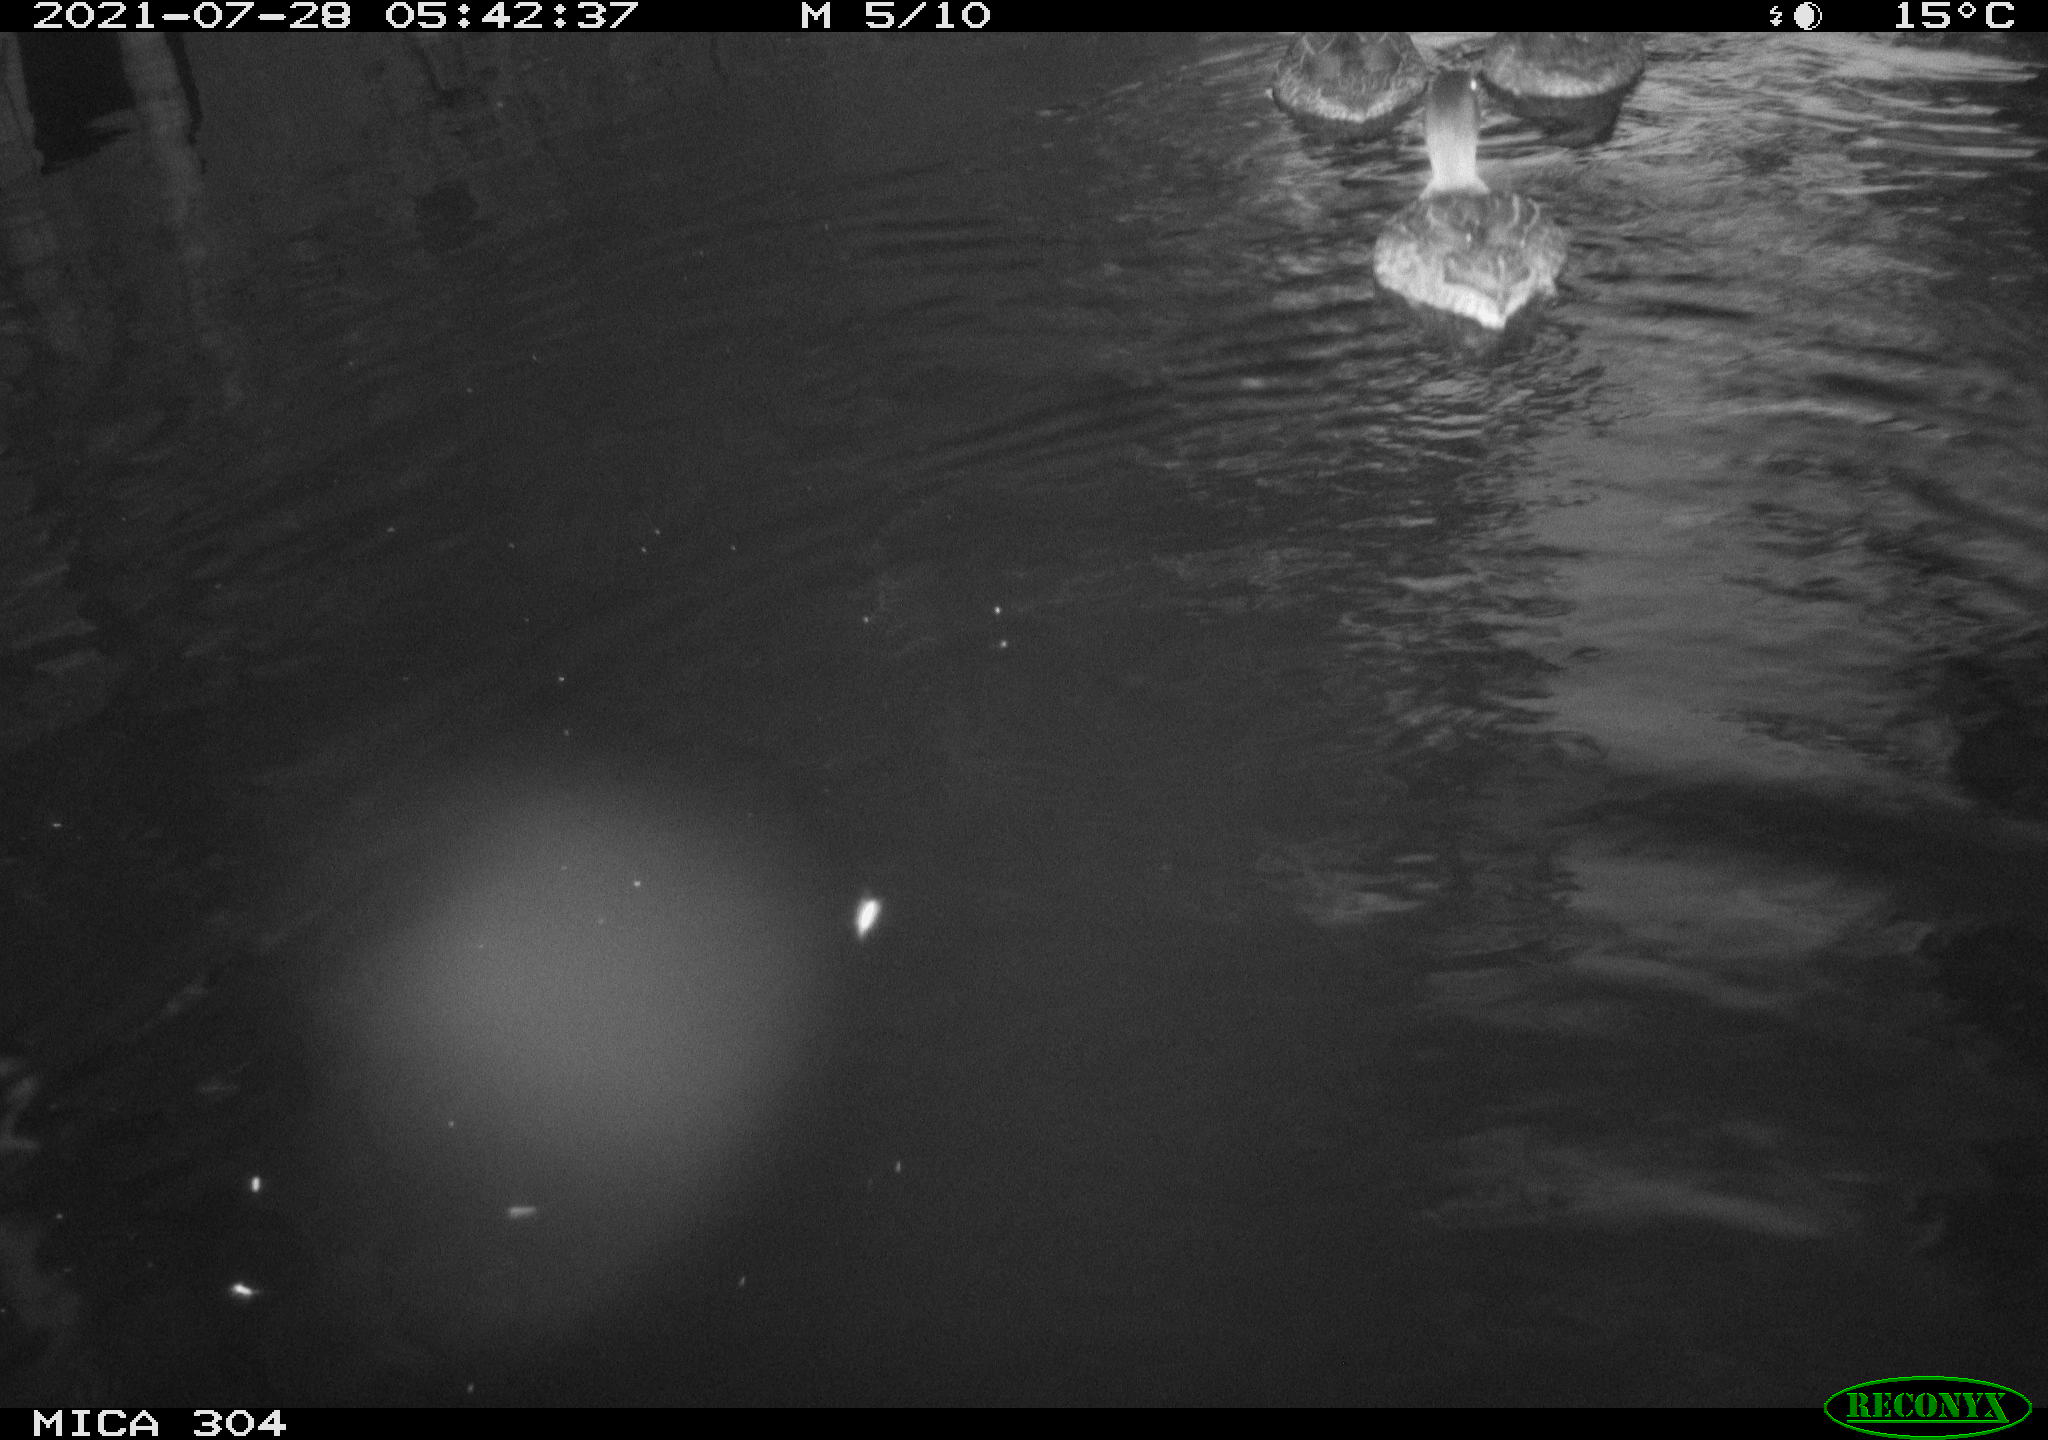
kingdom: Animalia
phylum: Chordata
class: Aves
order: Anseriformes
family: Anatidae
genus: Mareca
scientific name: Mareca strepera
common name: Gadwall
